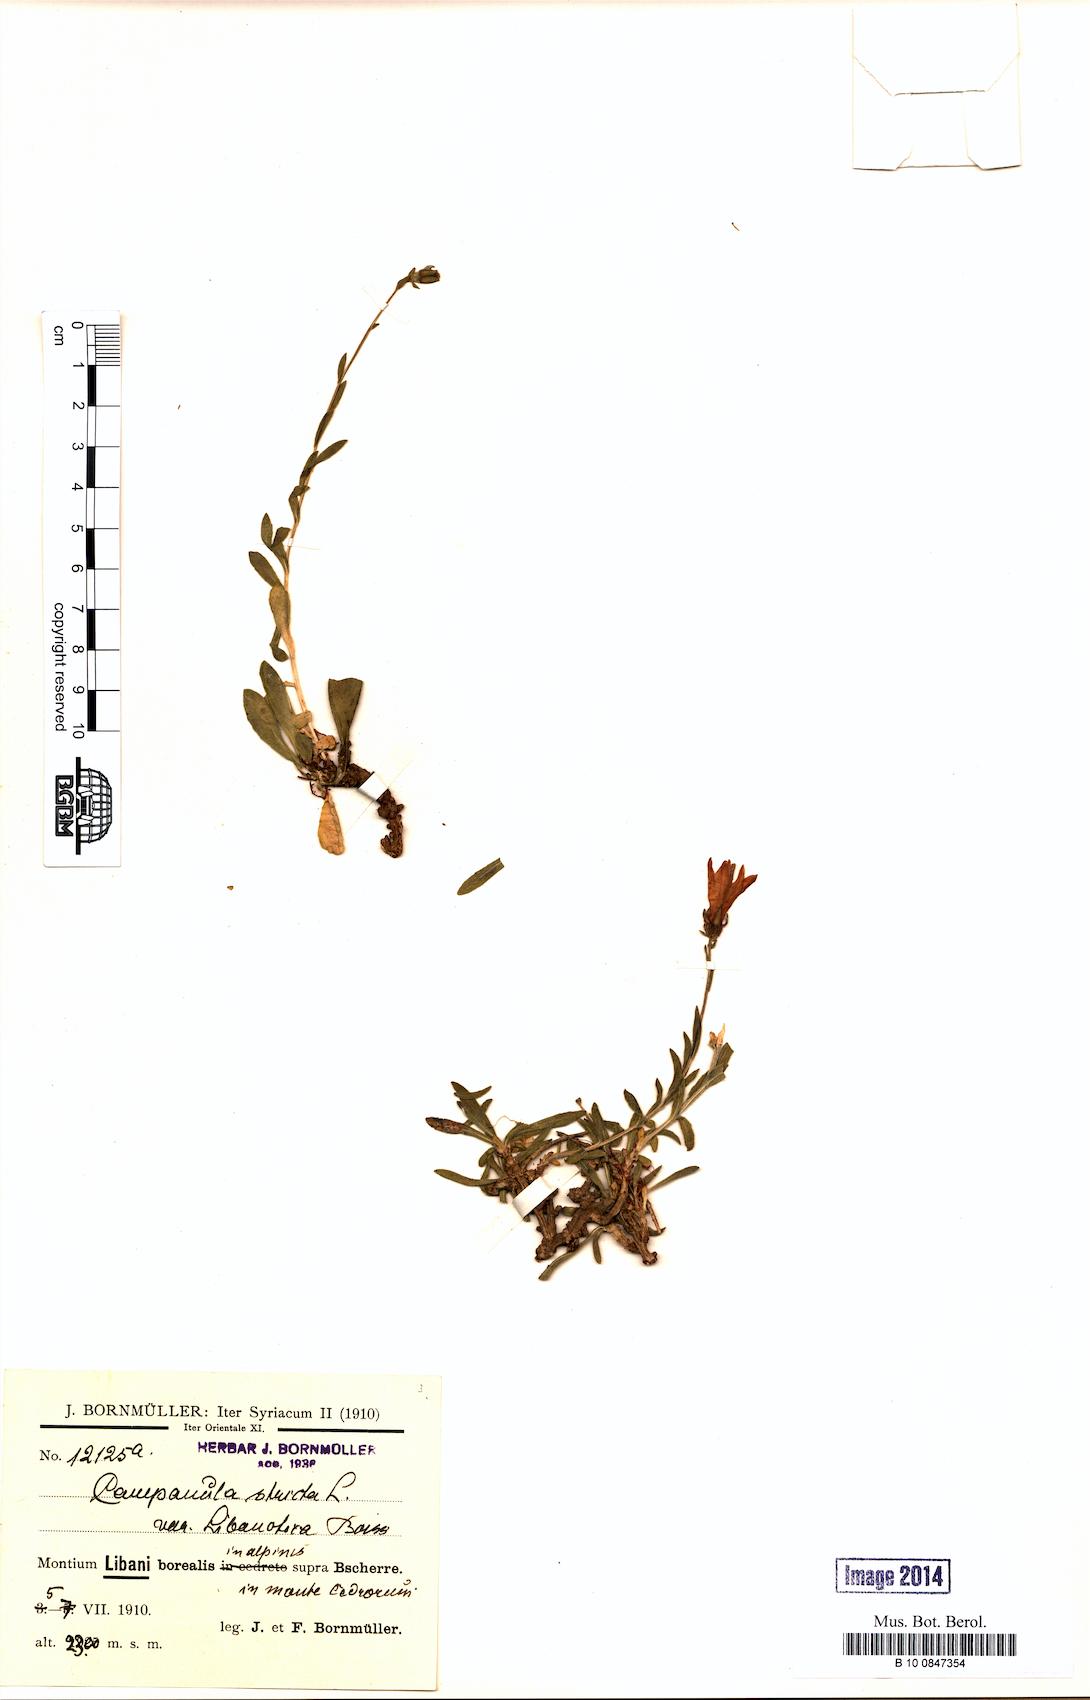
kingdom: Plantae
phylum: Tracheophyta
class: Magnoliopsida
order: Asterales
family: Campanulaceae
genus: Campanula
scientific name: Campanula stricta
